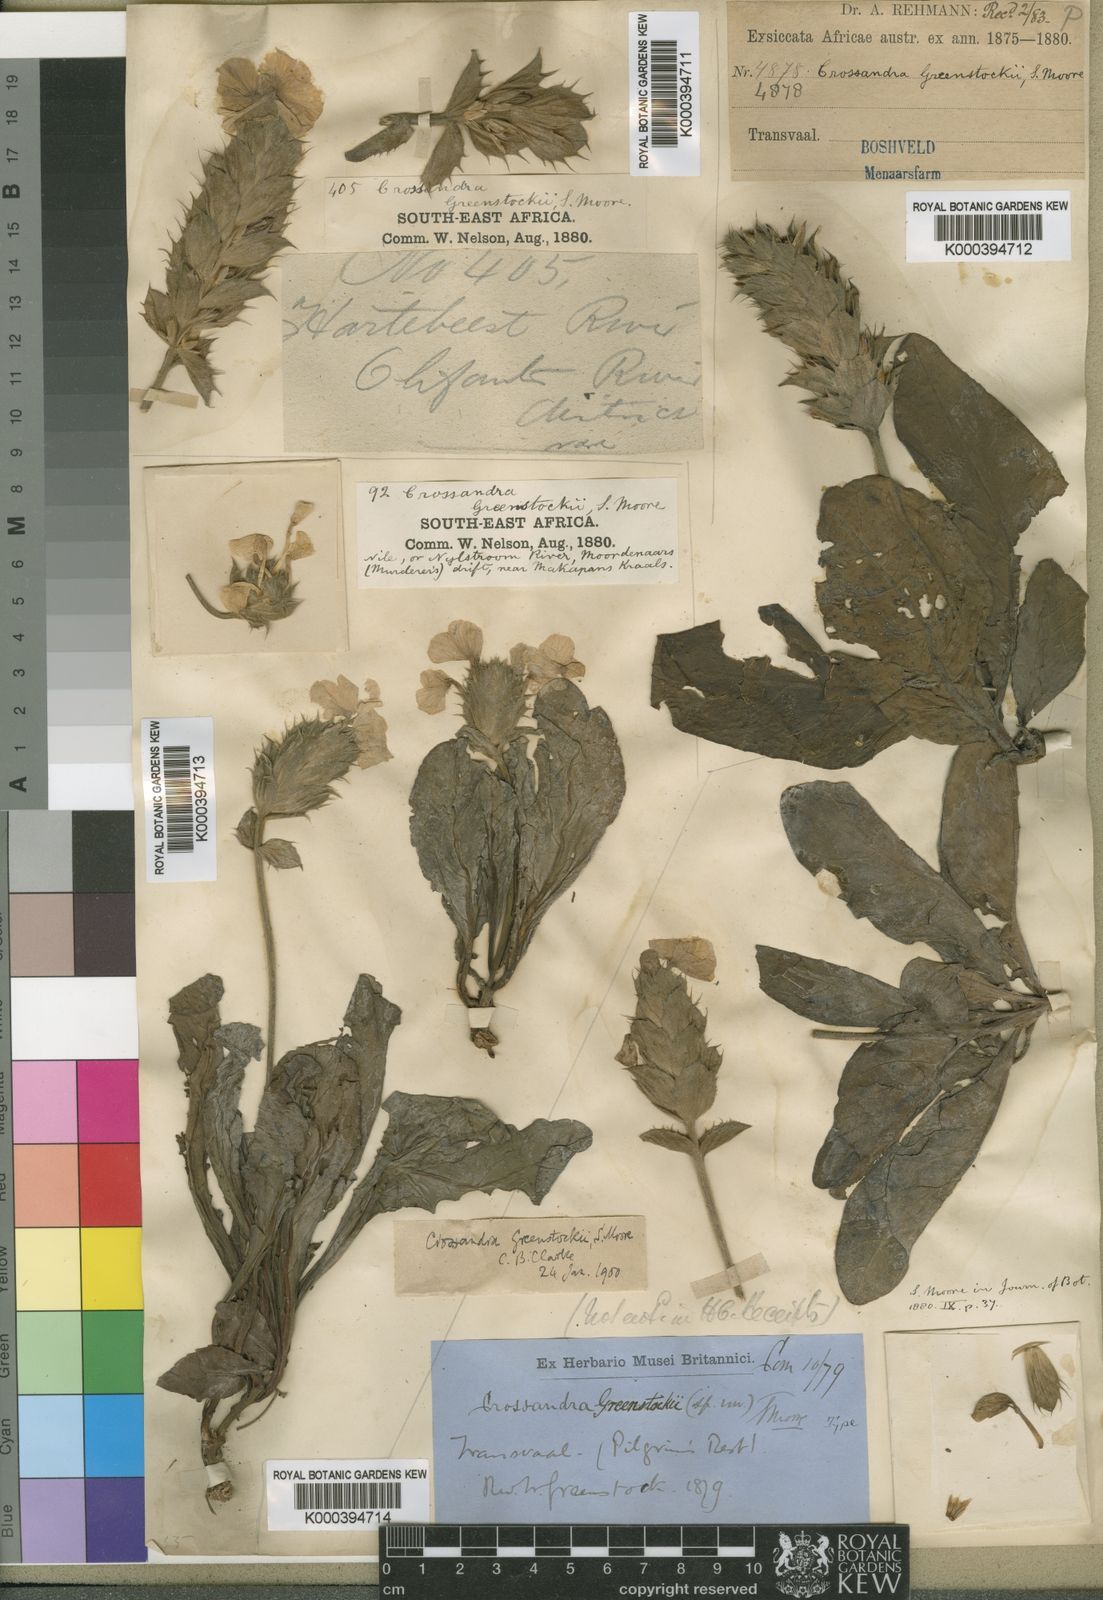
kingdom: Plantae
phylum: Tracheophyta
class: Magnoliopsida
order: Lamiales
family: Acanthaceae
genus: Crossandra
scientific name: Crossandra greenstockii
